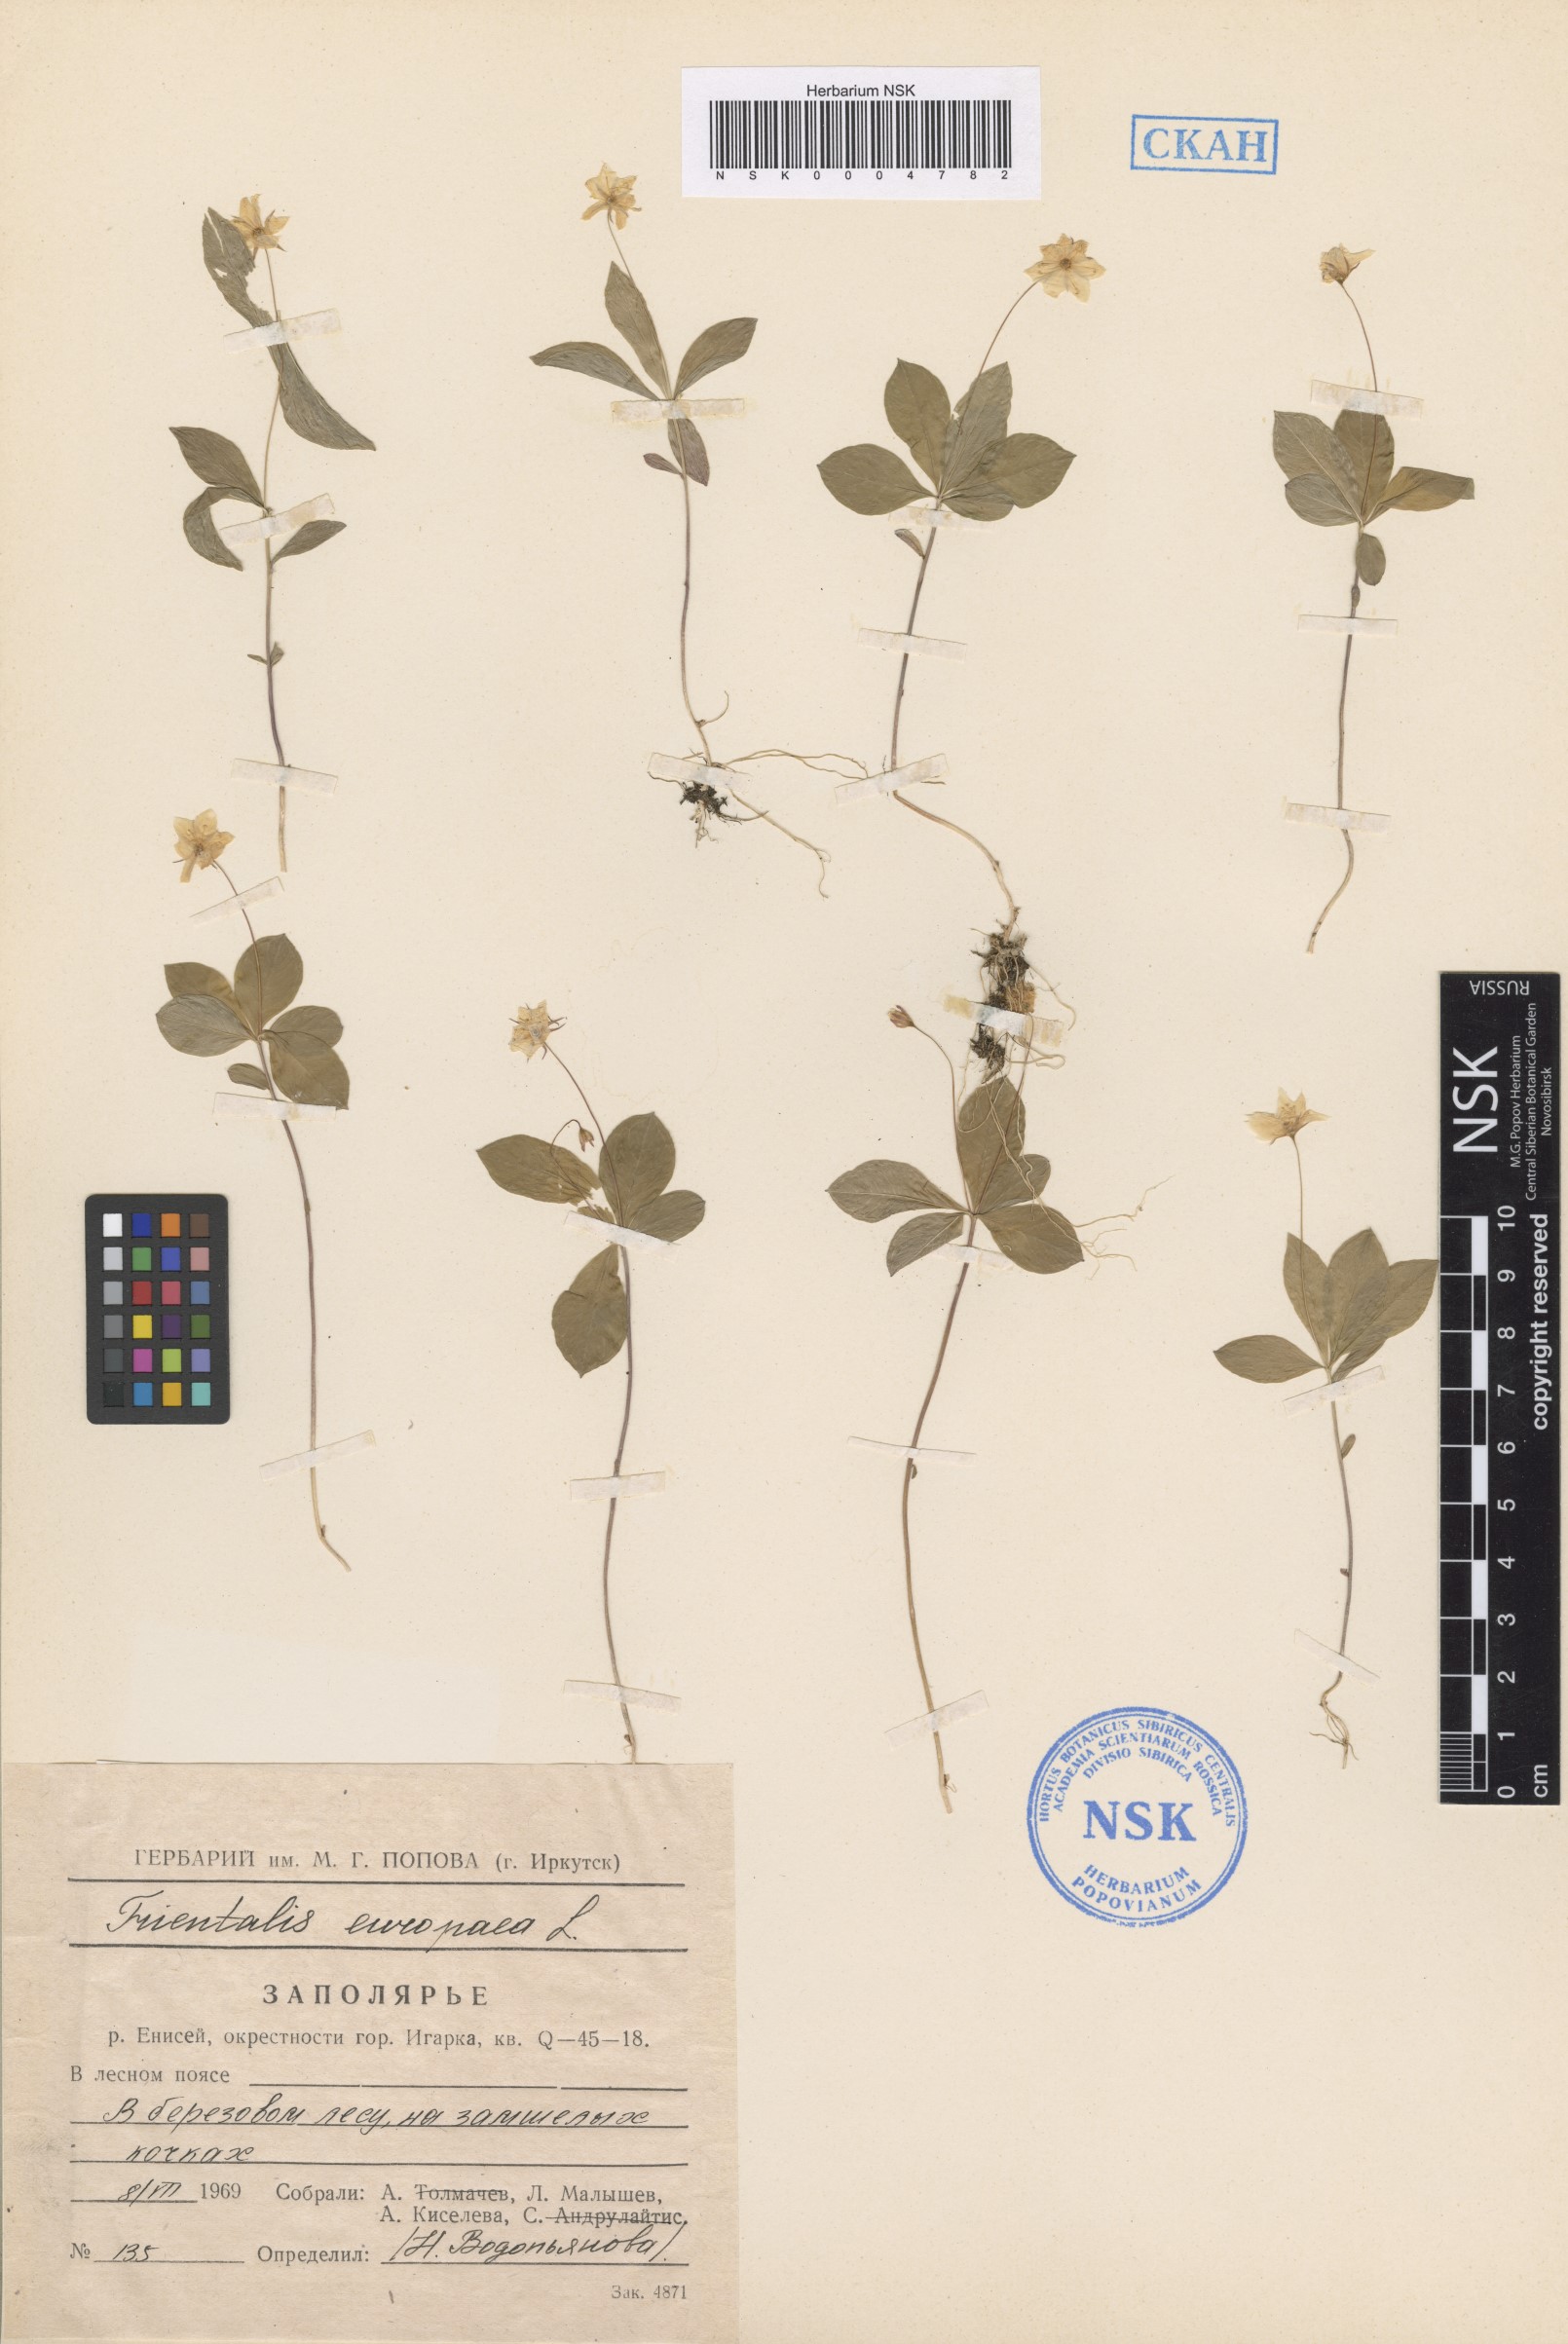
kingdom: Plantae
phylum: Tracheophyta
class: Magnoliopsida
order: Ericales
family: Primulaceae
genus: Lysimachia
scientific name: Lysimachia europaea
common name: Arctic starflower
